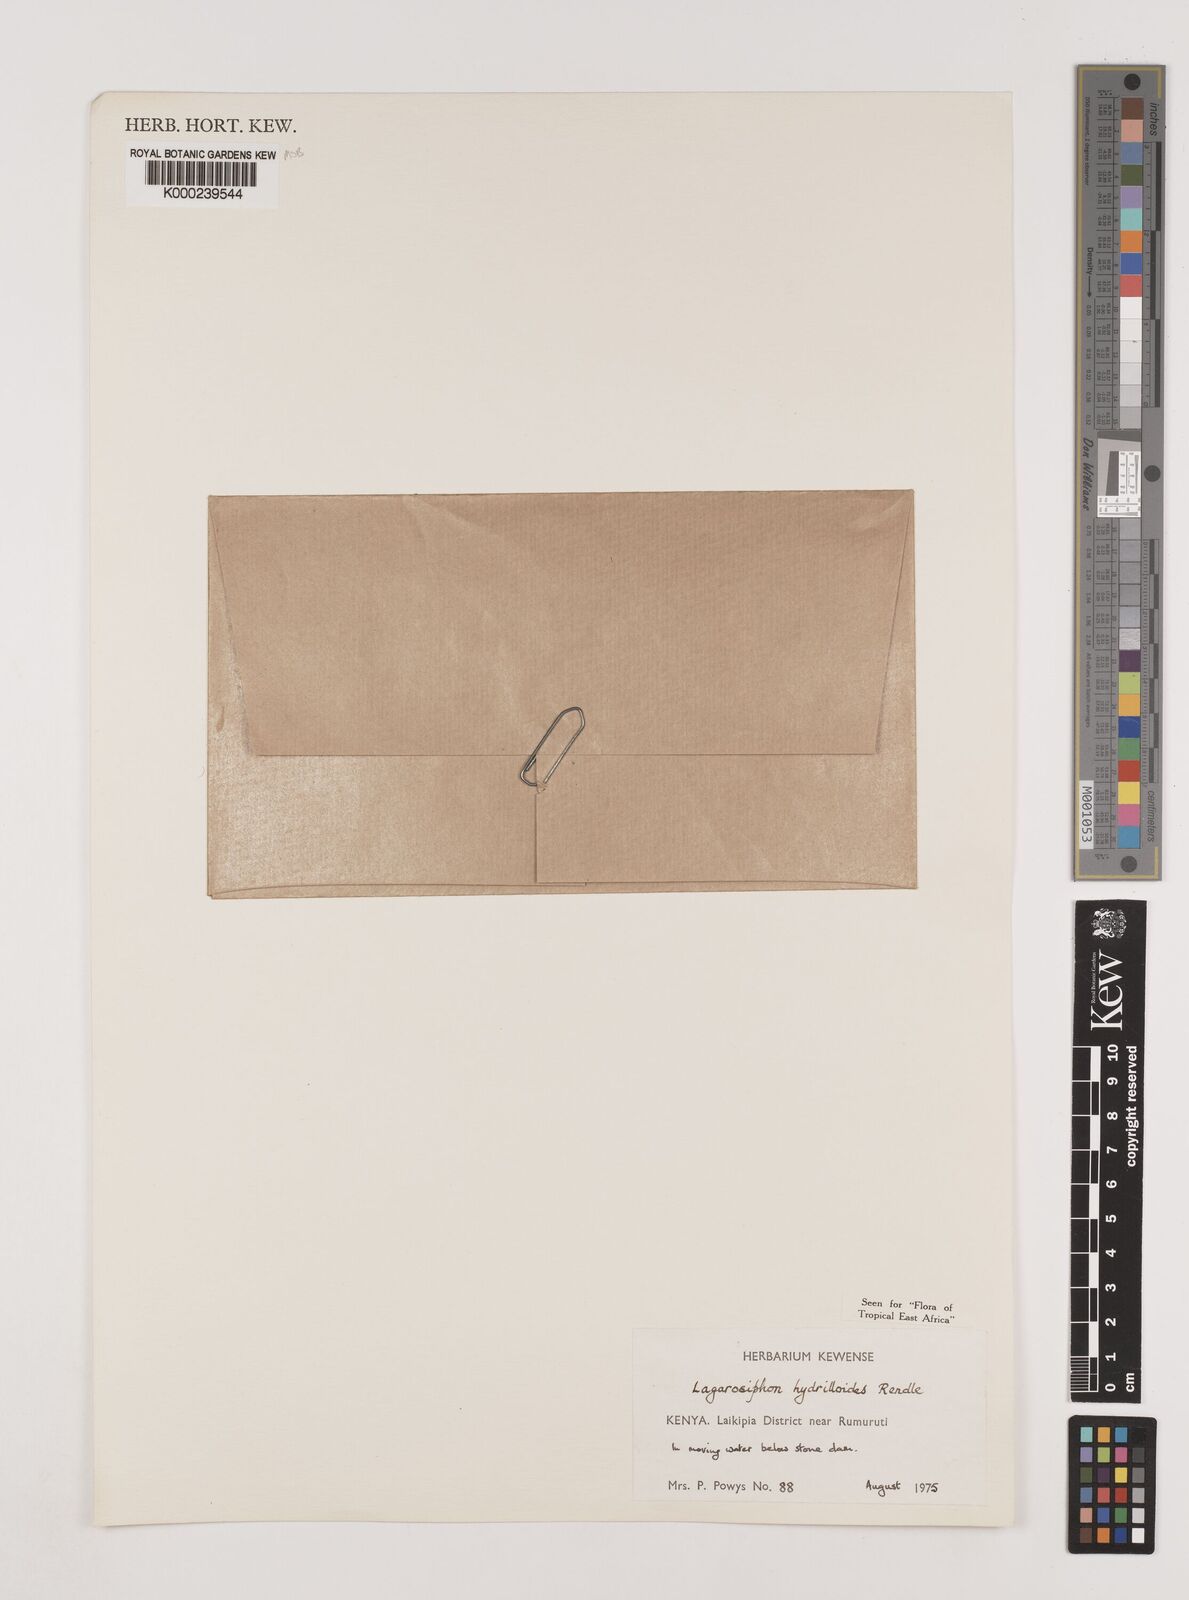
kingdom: Plantae
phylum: Tracheophyta
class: Liliopsida
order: Alismatales
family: Hydrocharitaceae
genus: Lagarosiphon
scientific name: Lagarosiphon hydrilloides
